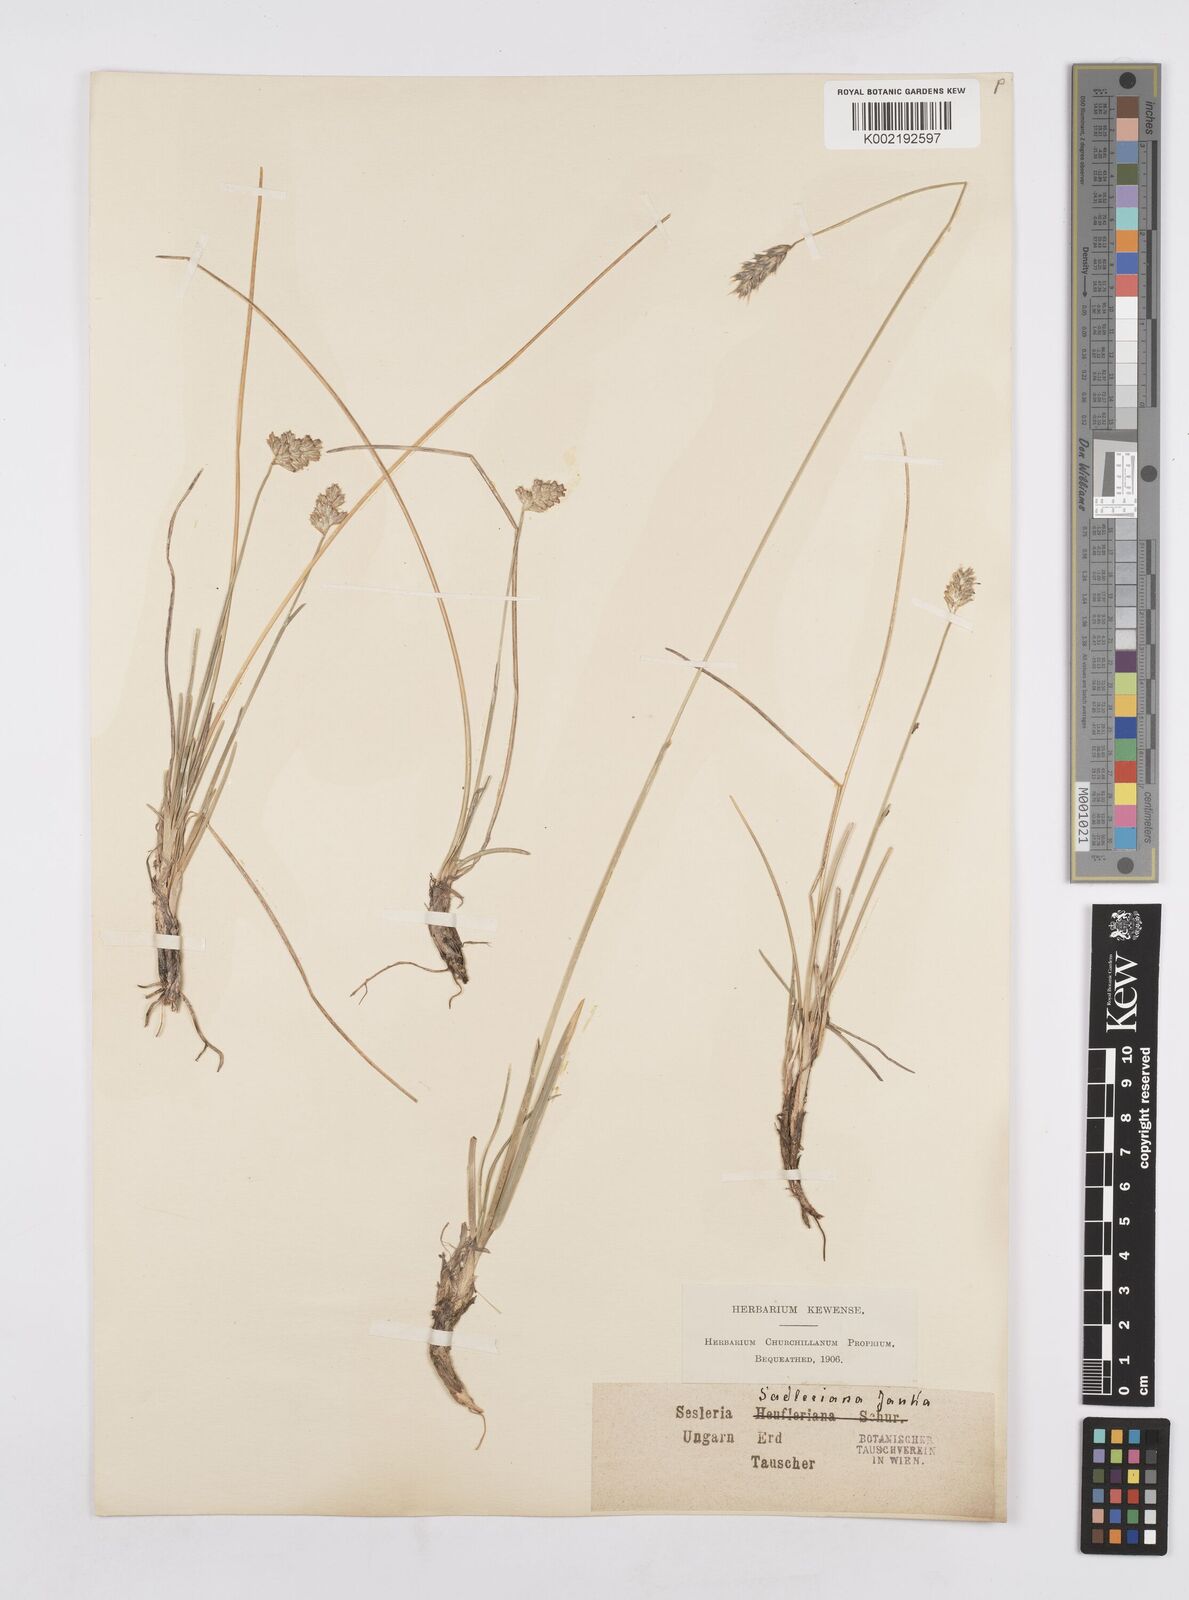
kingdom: Plantae
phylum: Tracheophyta
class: Liliopsida
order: Poales
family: Poaceae
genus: Sesleria
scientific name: Sesleria heufleriana
